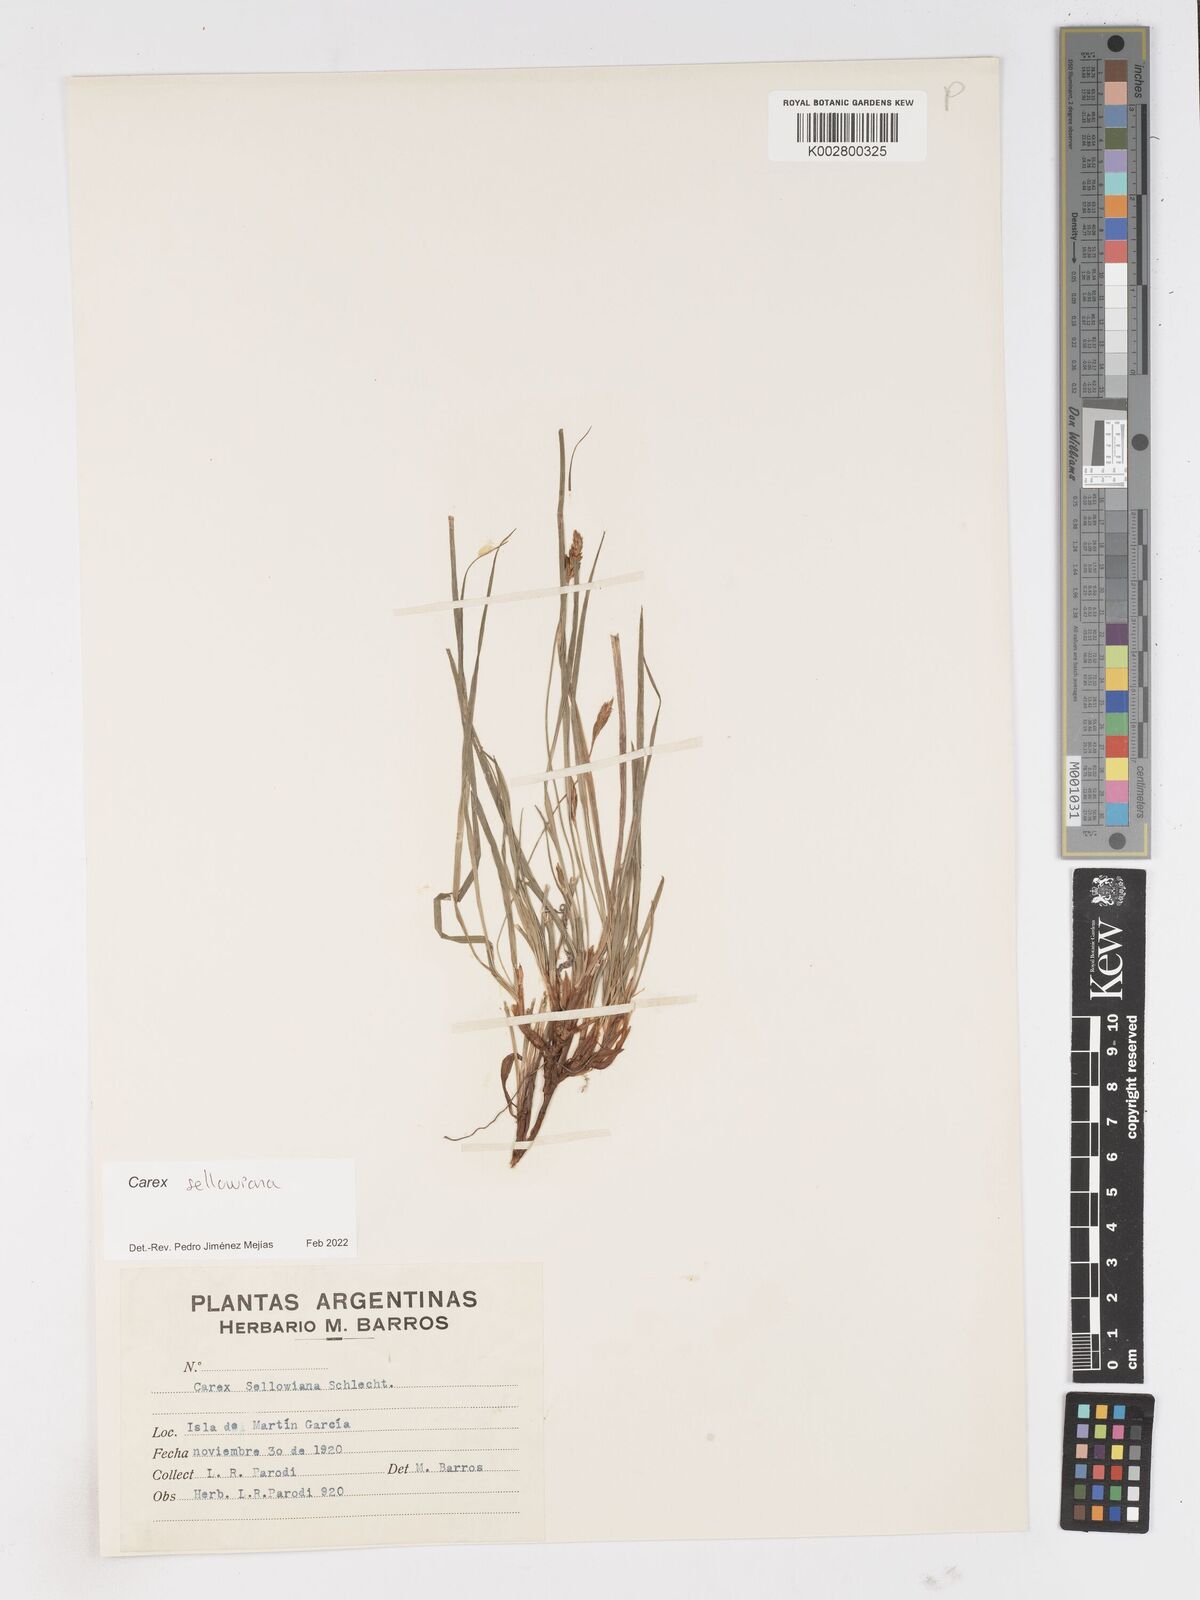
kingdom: Plantae
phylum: Tracheophyta
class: Liliopsida
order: Poales
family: Cyperaceae
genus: Carex
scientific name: Carex sellowiana
